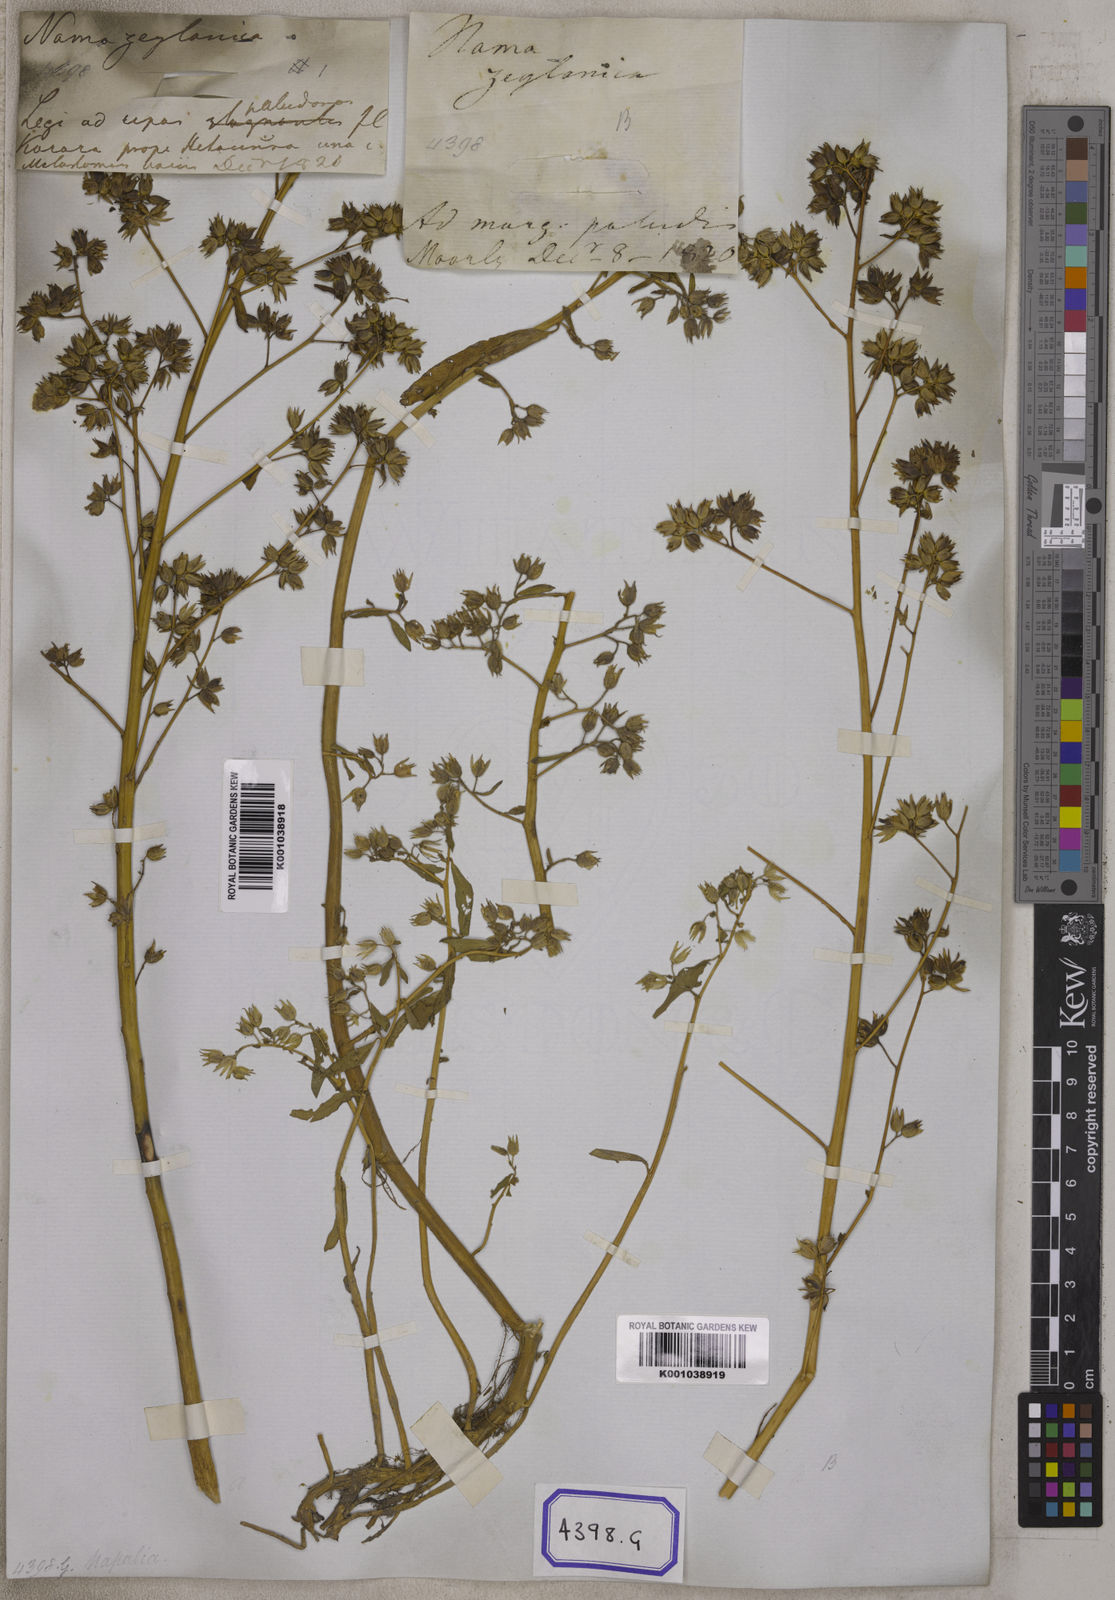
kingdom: Plantae
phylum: Tracheophyta
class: Magnoliopsida
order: Solanales
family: Hydroleaceae
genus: Hydrolea
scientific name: Hydrolea zeylanica
